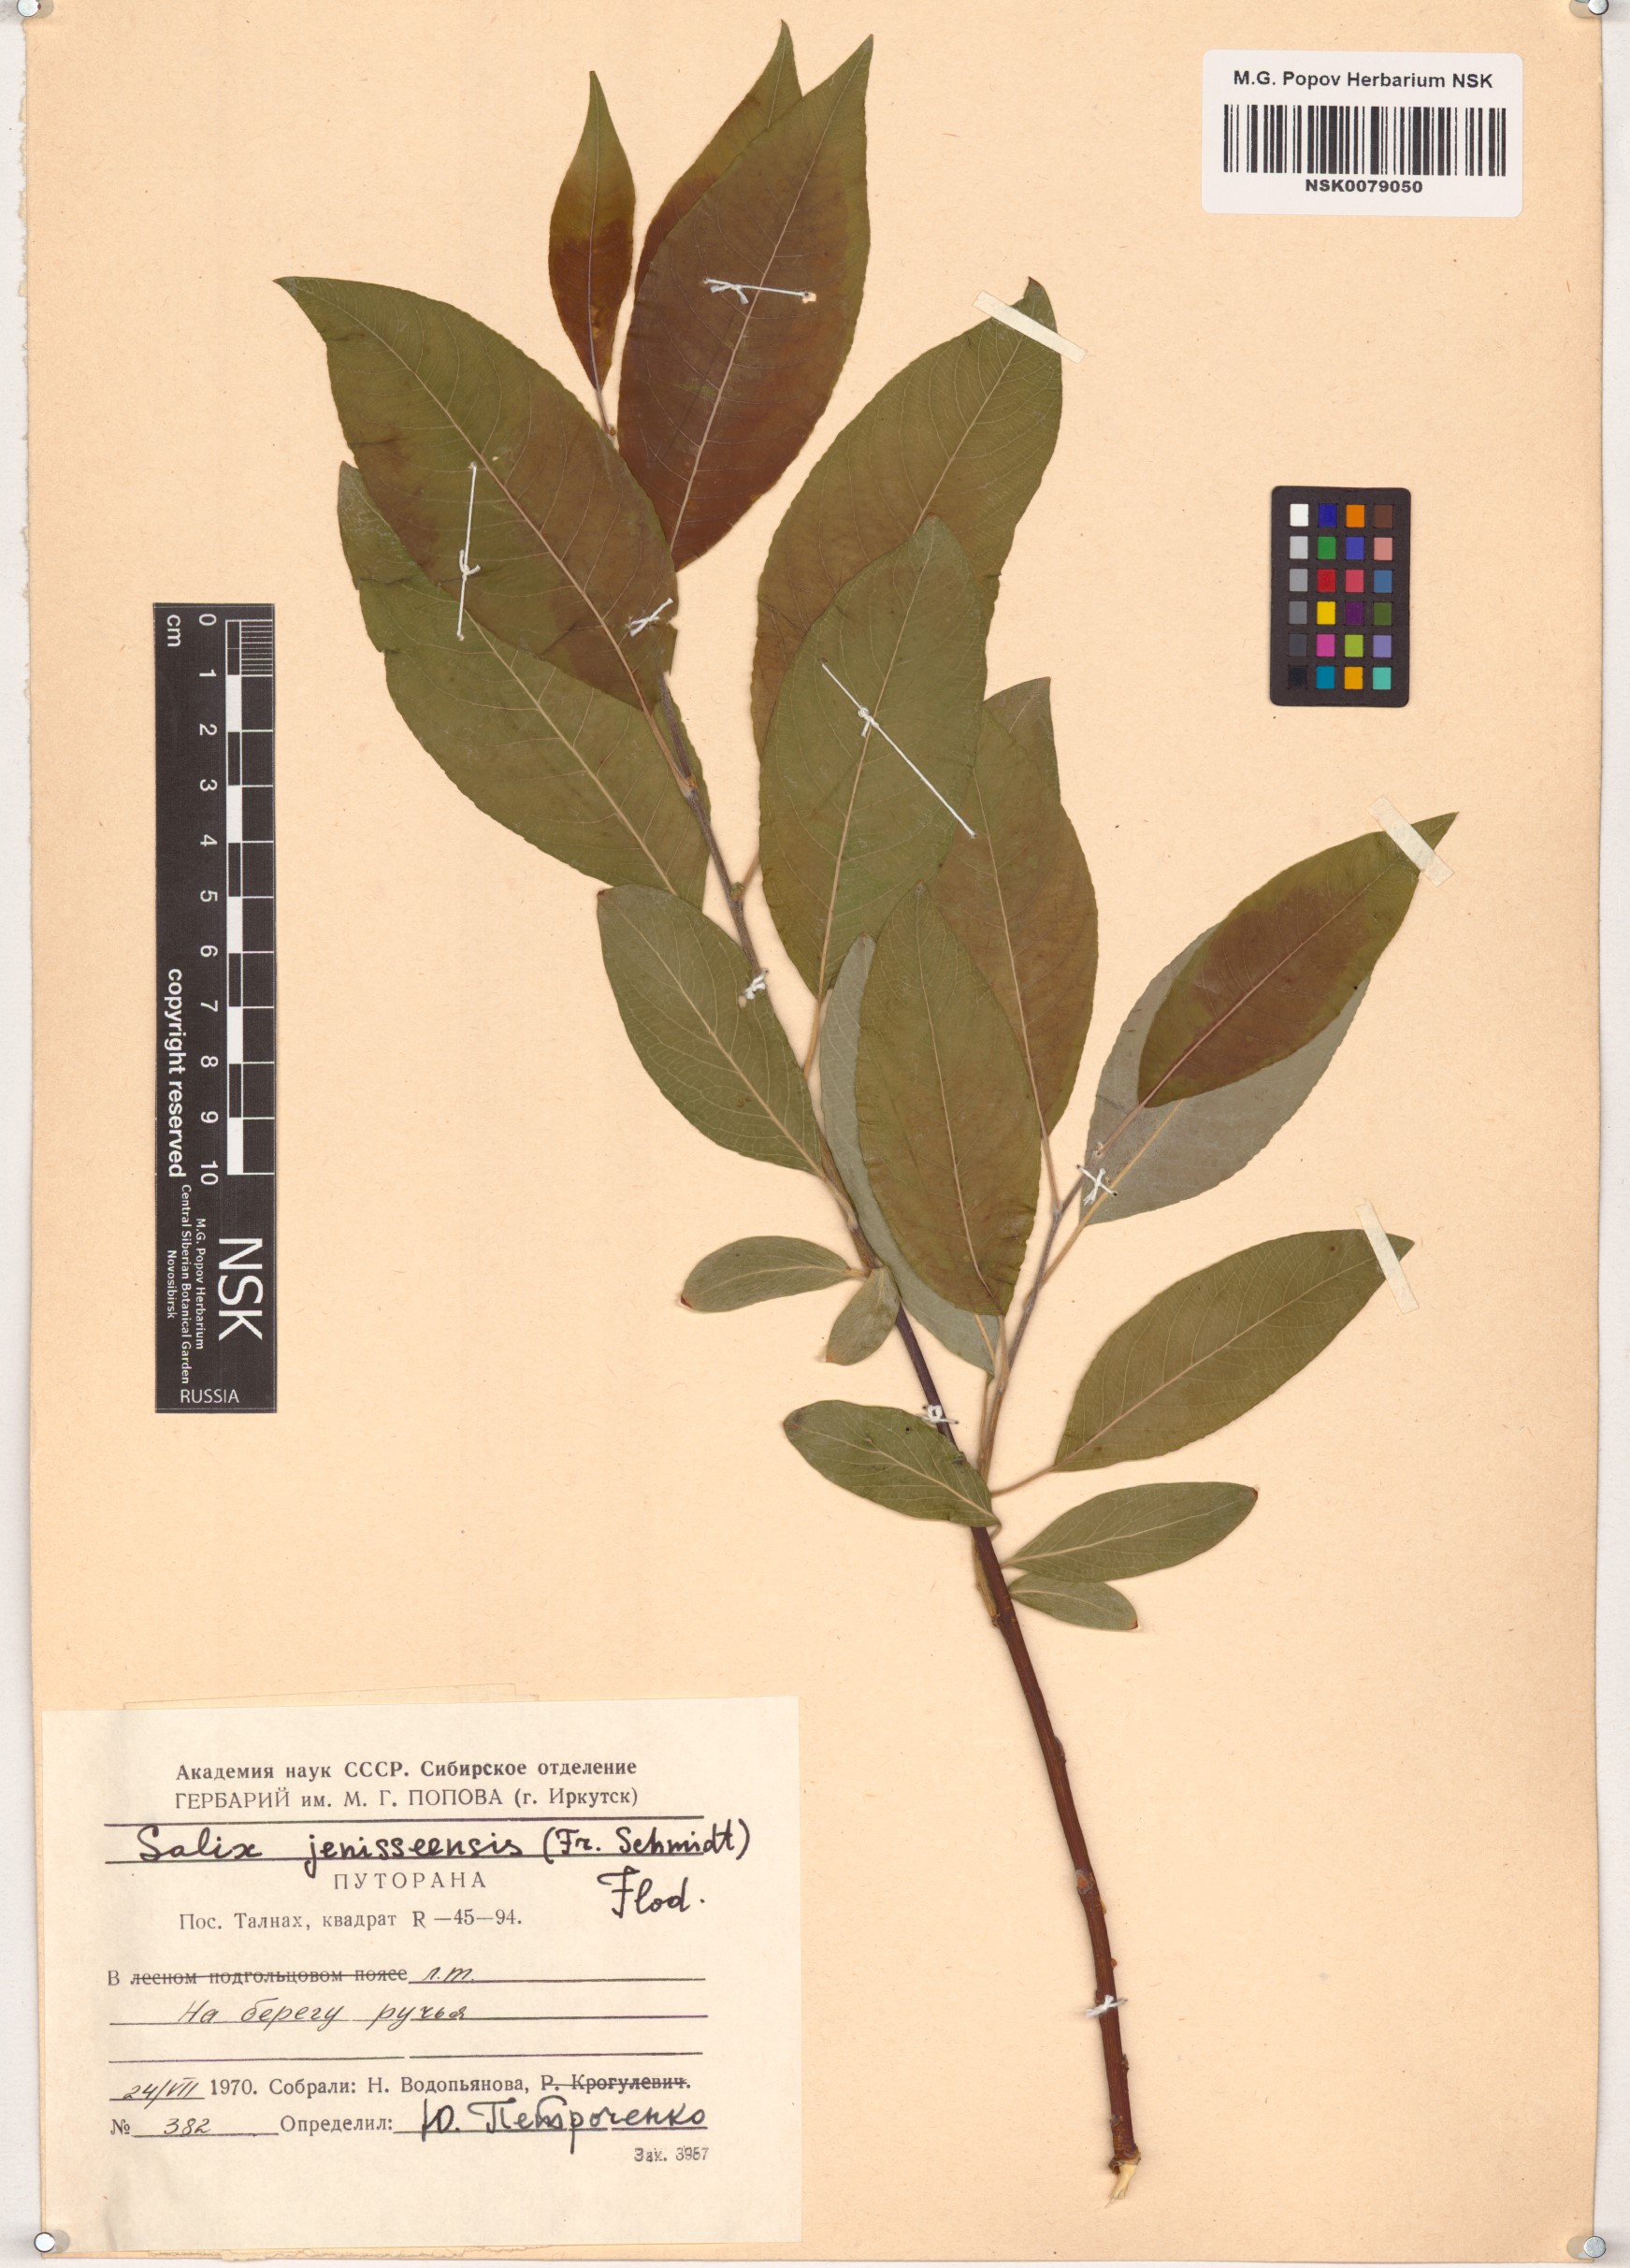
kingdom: Plantae
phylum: Tracheophyta
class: Magnoliopsida
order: Malpighiales
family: Salicaceae
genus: Salix
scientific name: Salix jenisseensis
